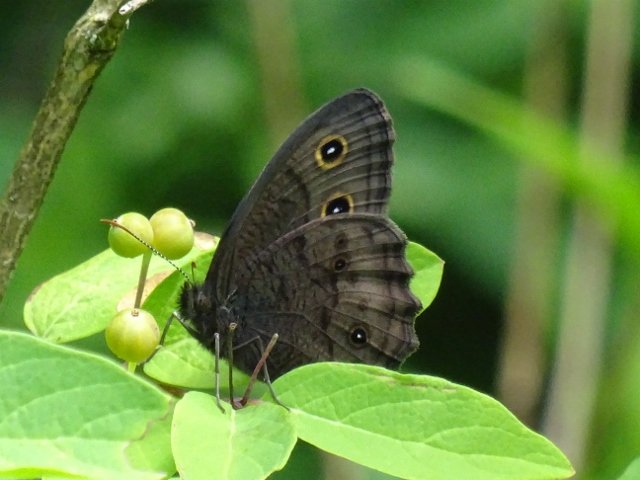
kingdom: Animalia
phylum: Arthropoda
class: Insecta
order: Lepidoptera
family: Nymphalidae
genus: Cercyonis
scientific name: Cercyonis pegala
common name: Common Wood-Nymph
